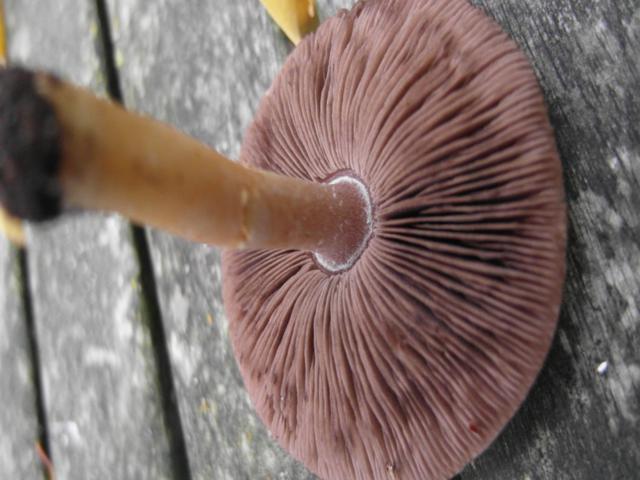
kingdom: Fungi
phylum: Basidiomycota
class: Agaricomycetes
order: Agaricales
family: Agaricaceae
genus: Agaricus
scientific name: Agaricus dulcidulus
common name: blegrød champignon
